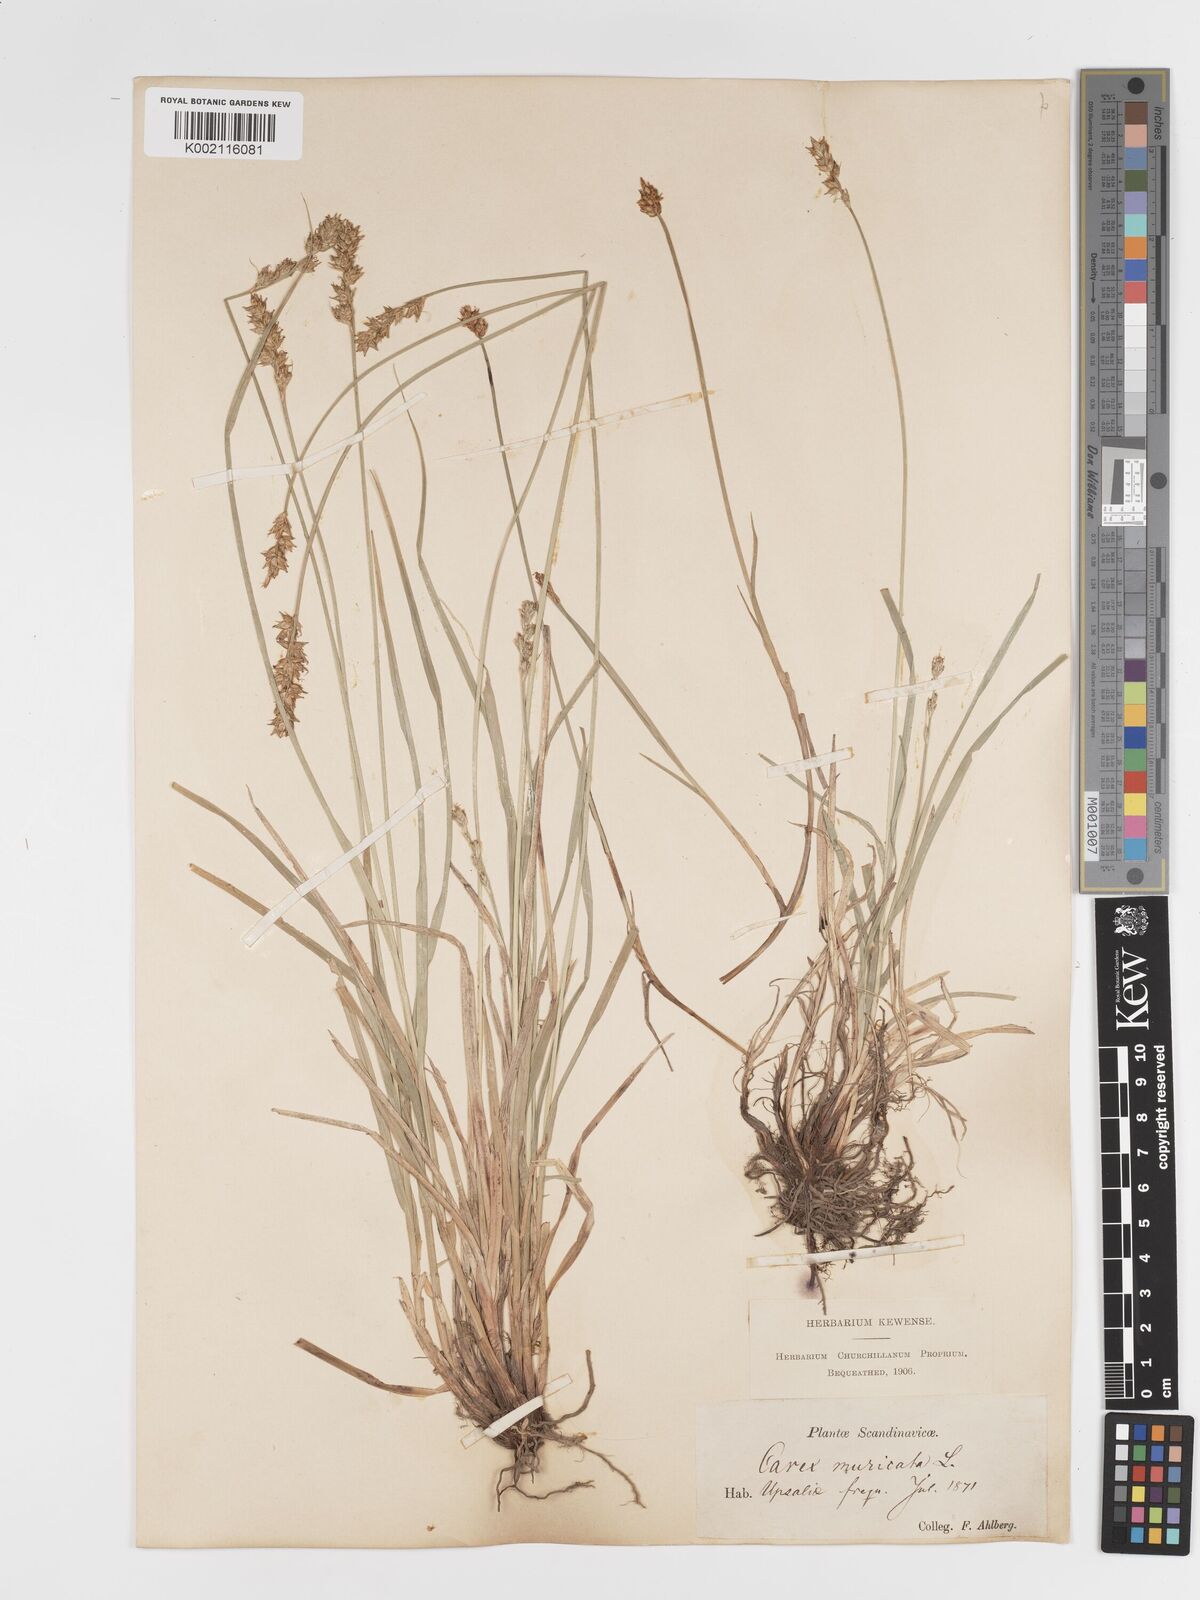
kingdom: Plantae
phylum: Tracheophyta
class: Liliopsida
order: Poales
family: Cyperaceae
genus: Carex
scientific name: Carex spicata
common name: Spiked sedge
